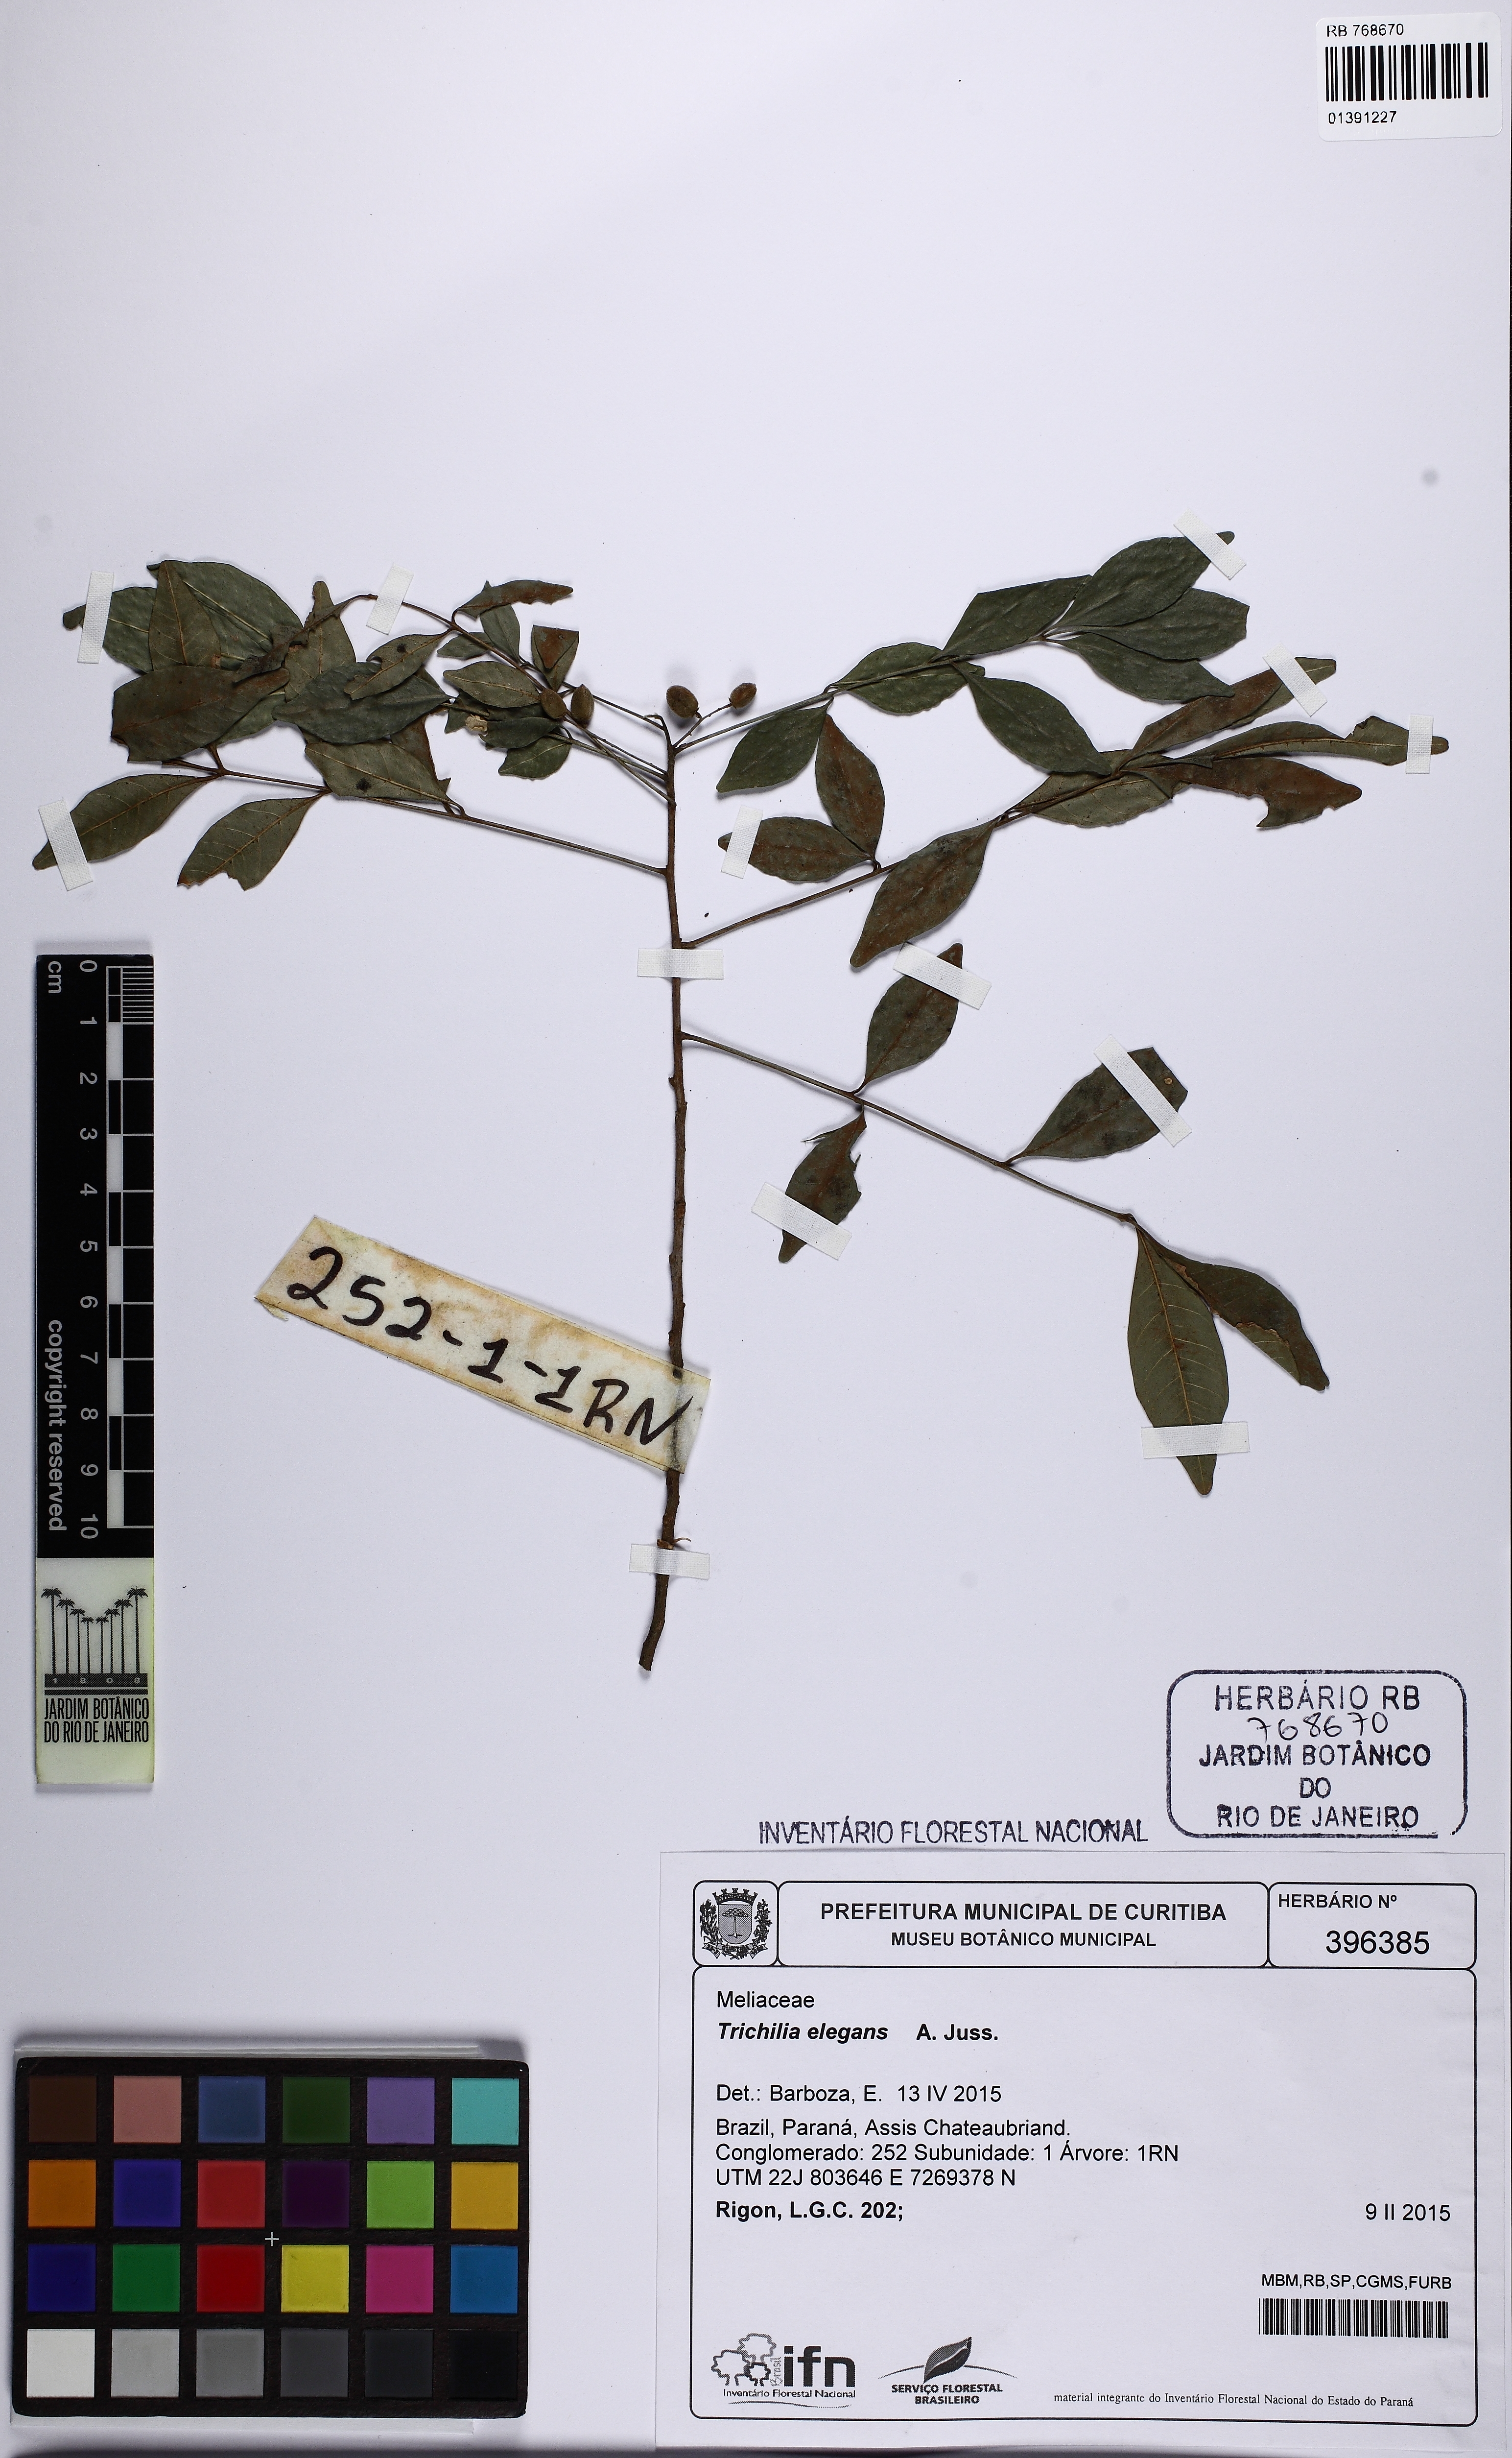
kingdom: Plantae
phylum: Tracheophyta
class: Magnoliopsida
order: Sapindales
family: Meliaceae
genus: Trichilia
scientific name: Trichilia elegans
